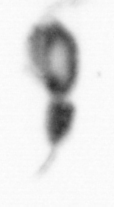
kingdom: Animalia
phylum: Arthropoda
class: Copepoda
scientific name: Copepoda
